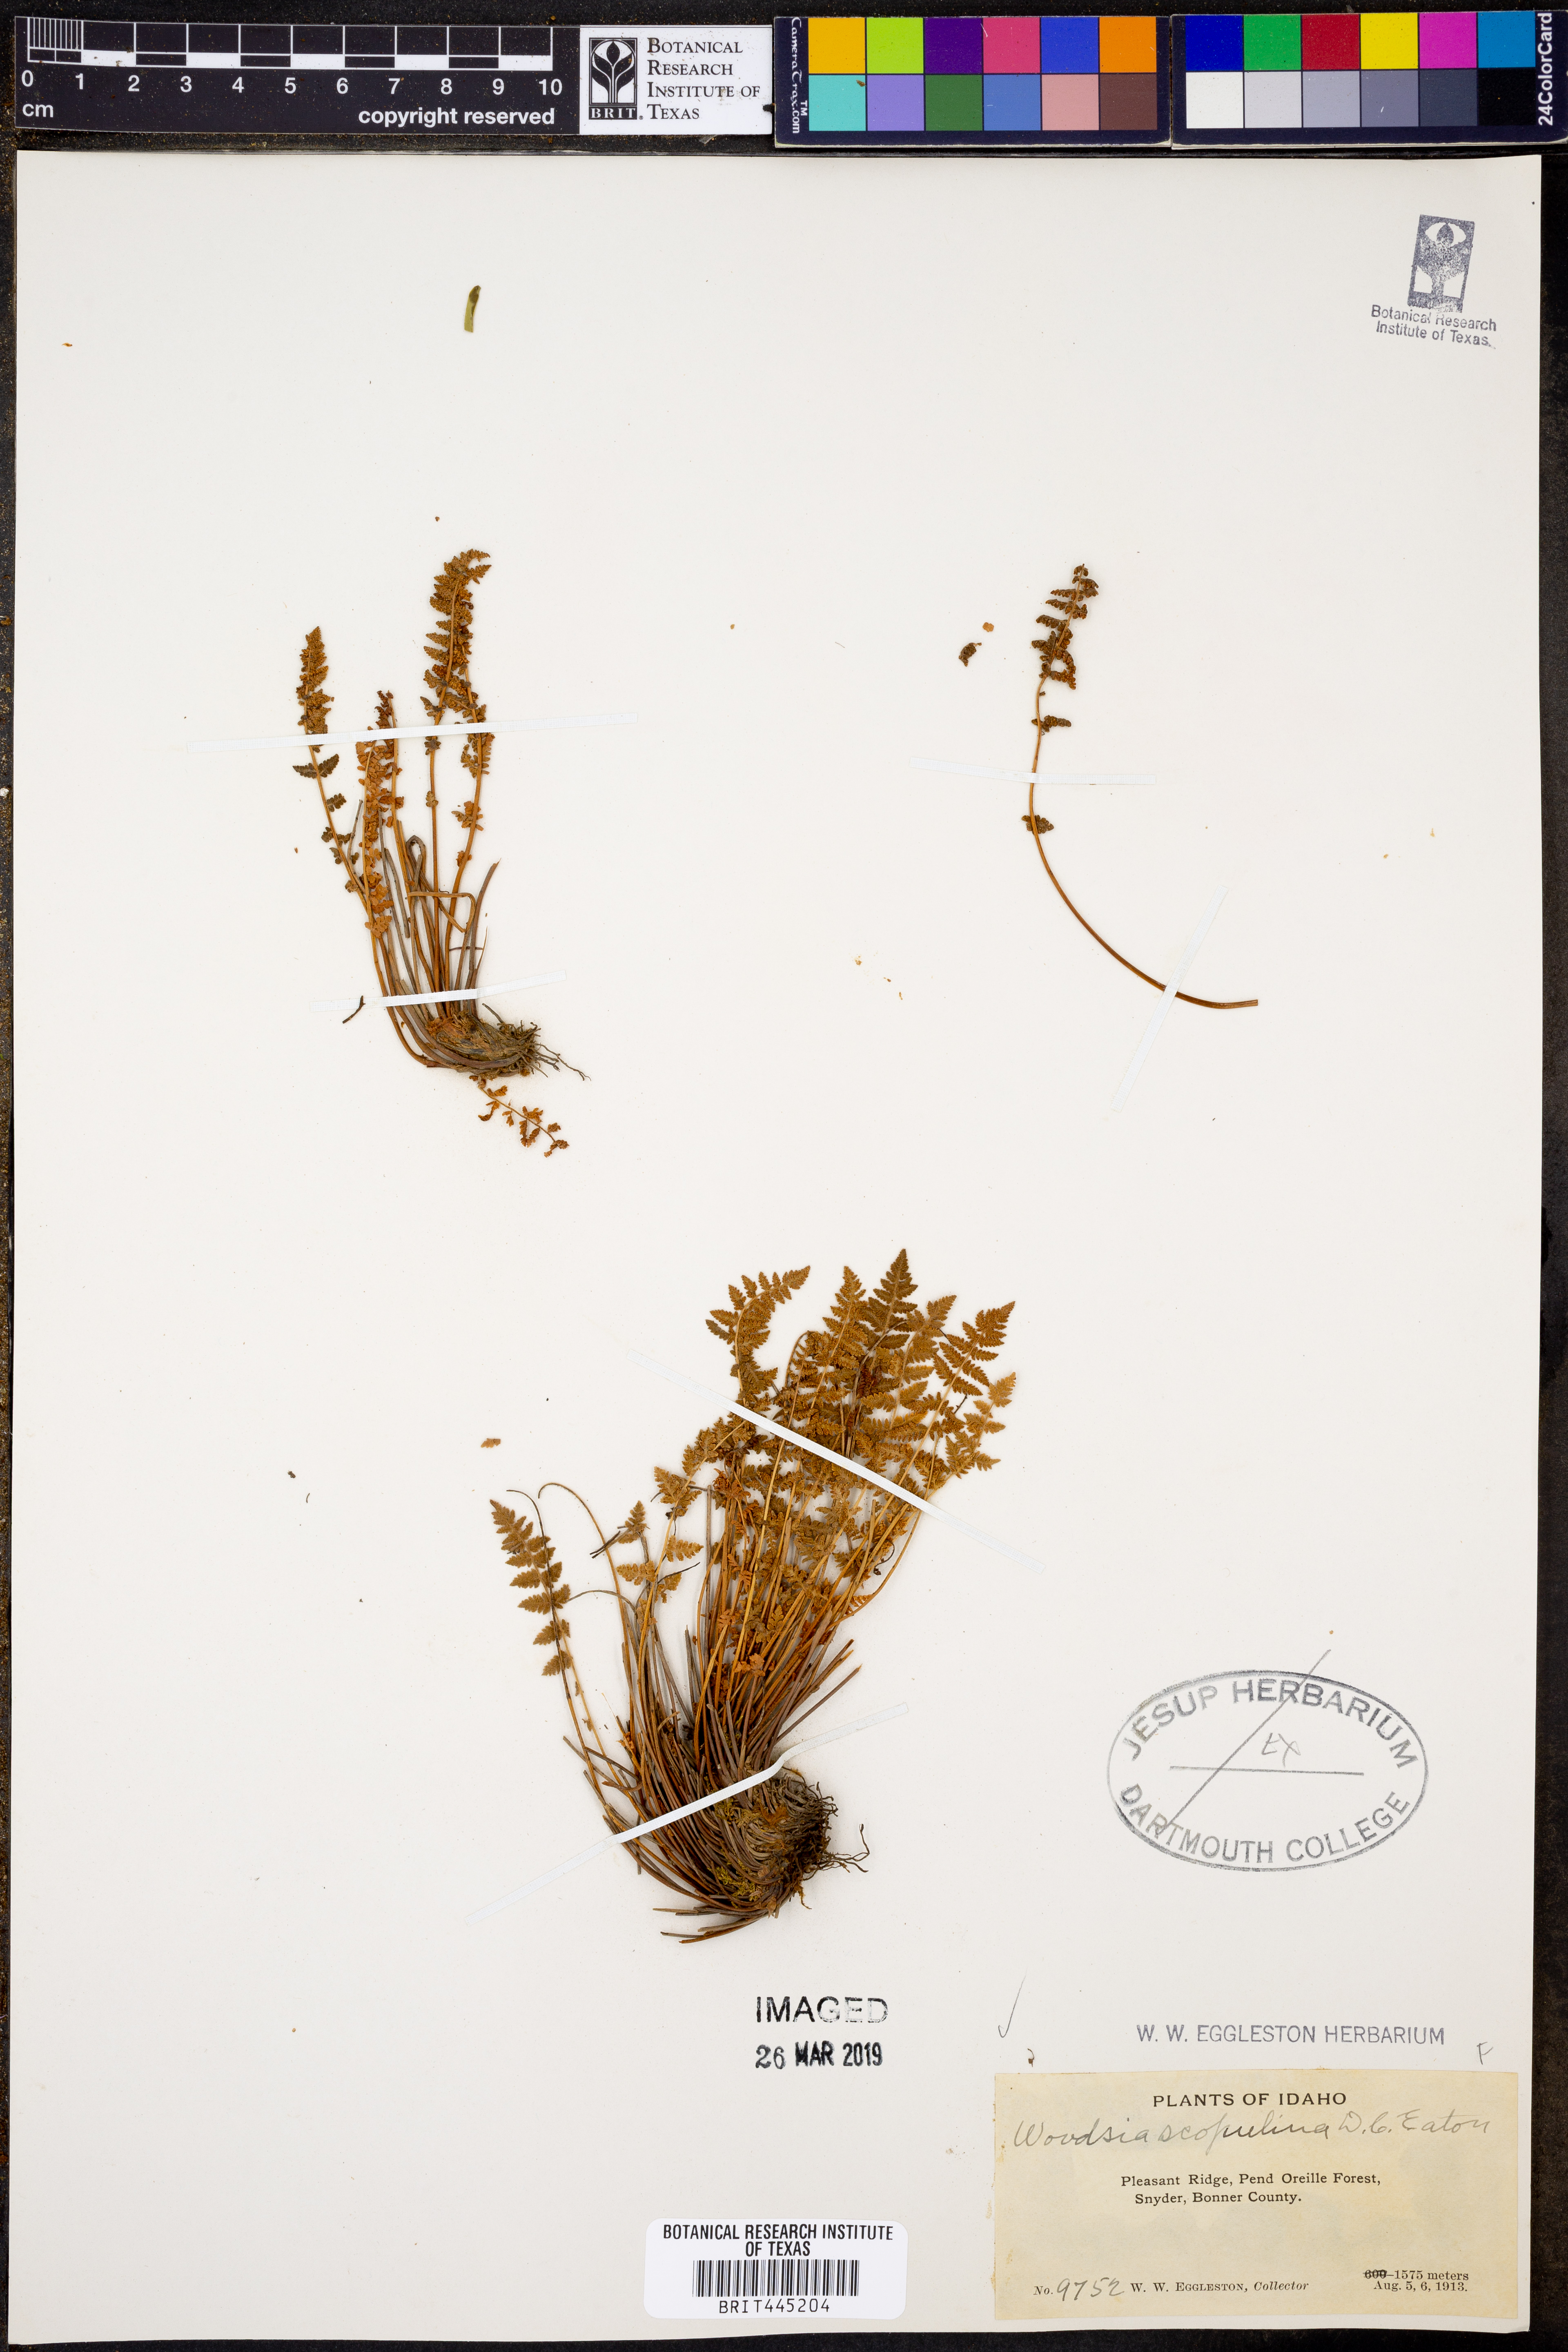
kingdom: Plantae
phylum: Tracheophyta
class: Polypodiopsida
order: Polypodiales
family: Woodsiaceae
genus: Physematium
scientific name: Physematium scopulinum
